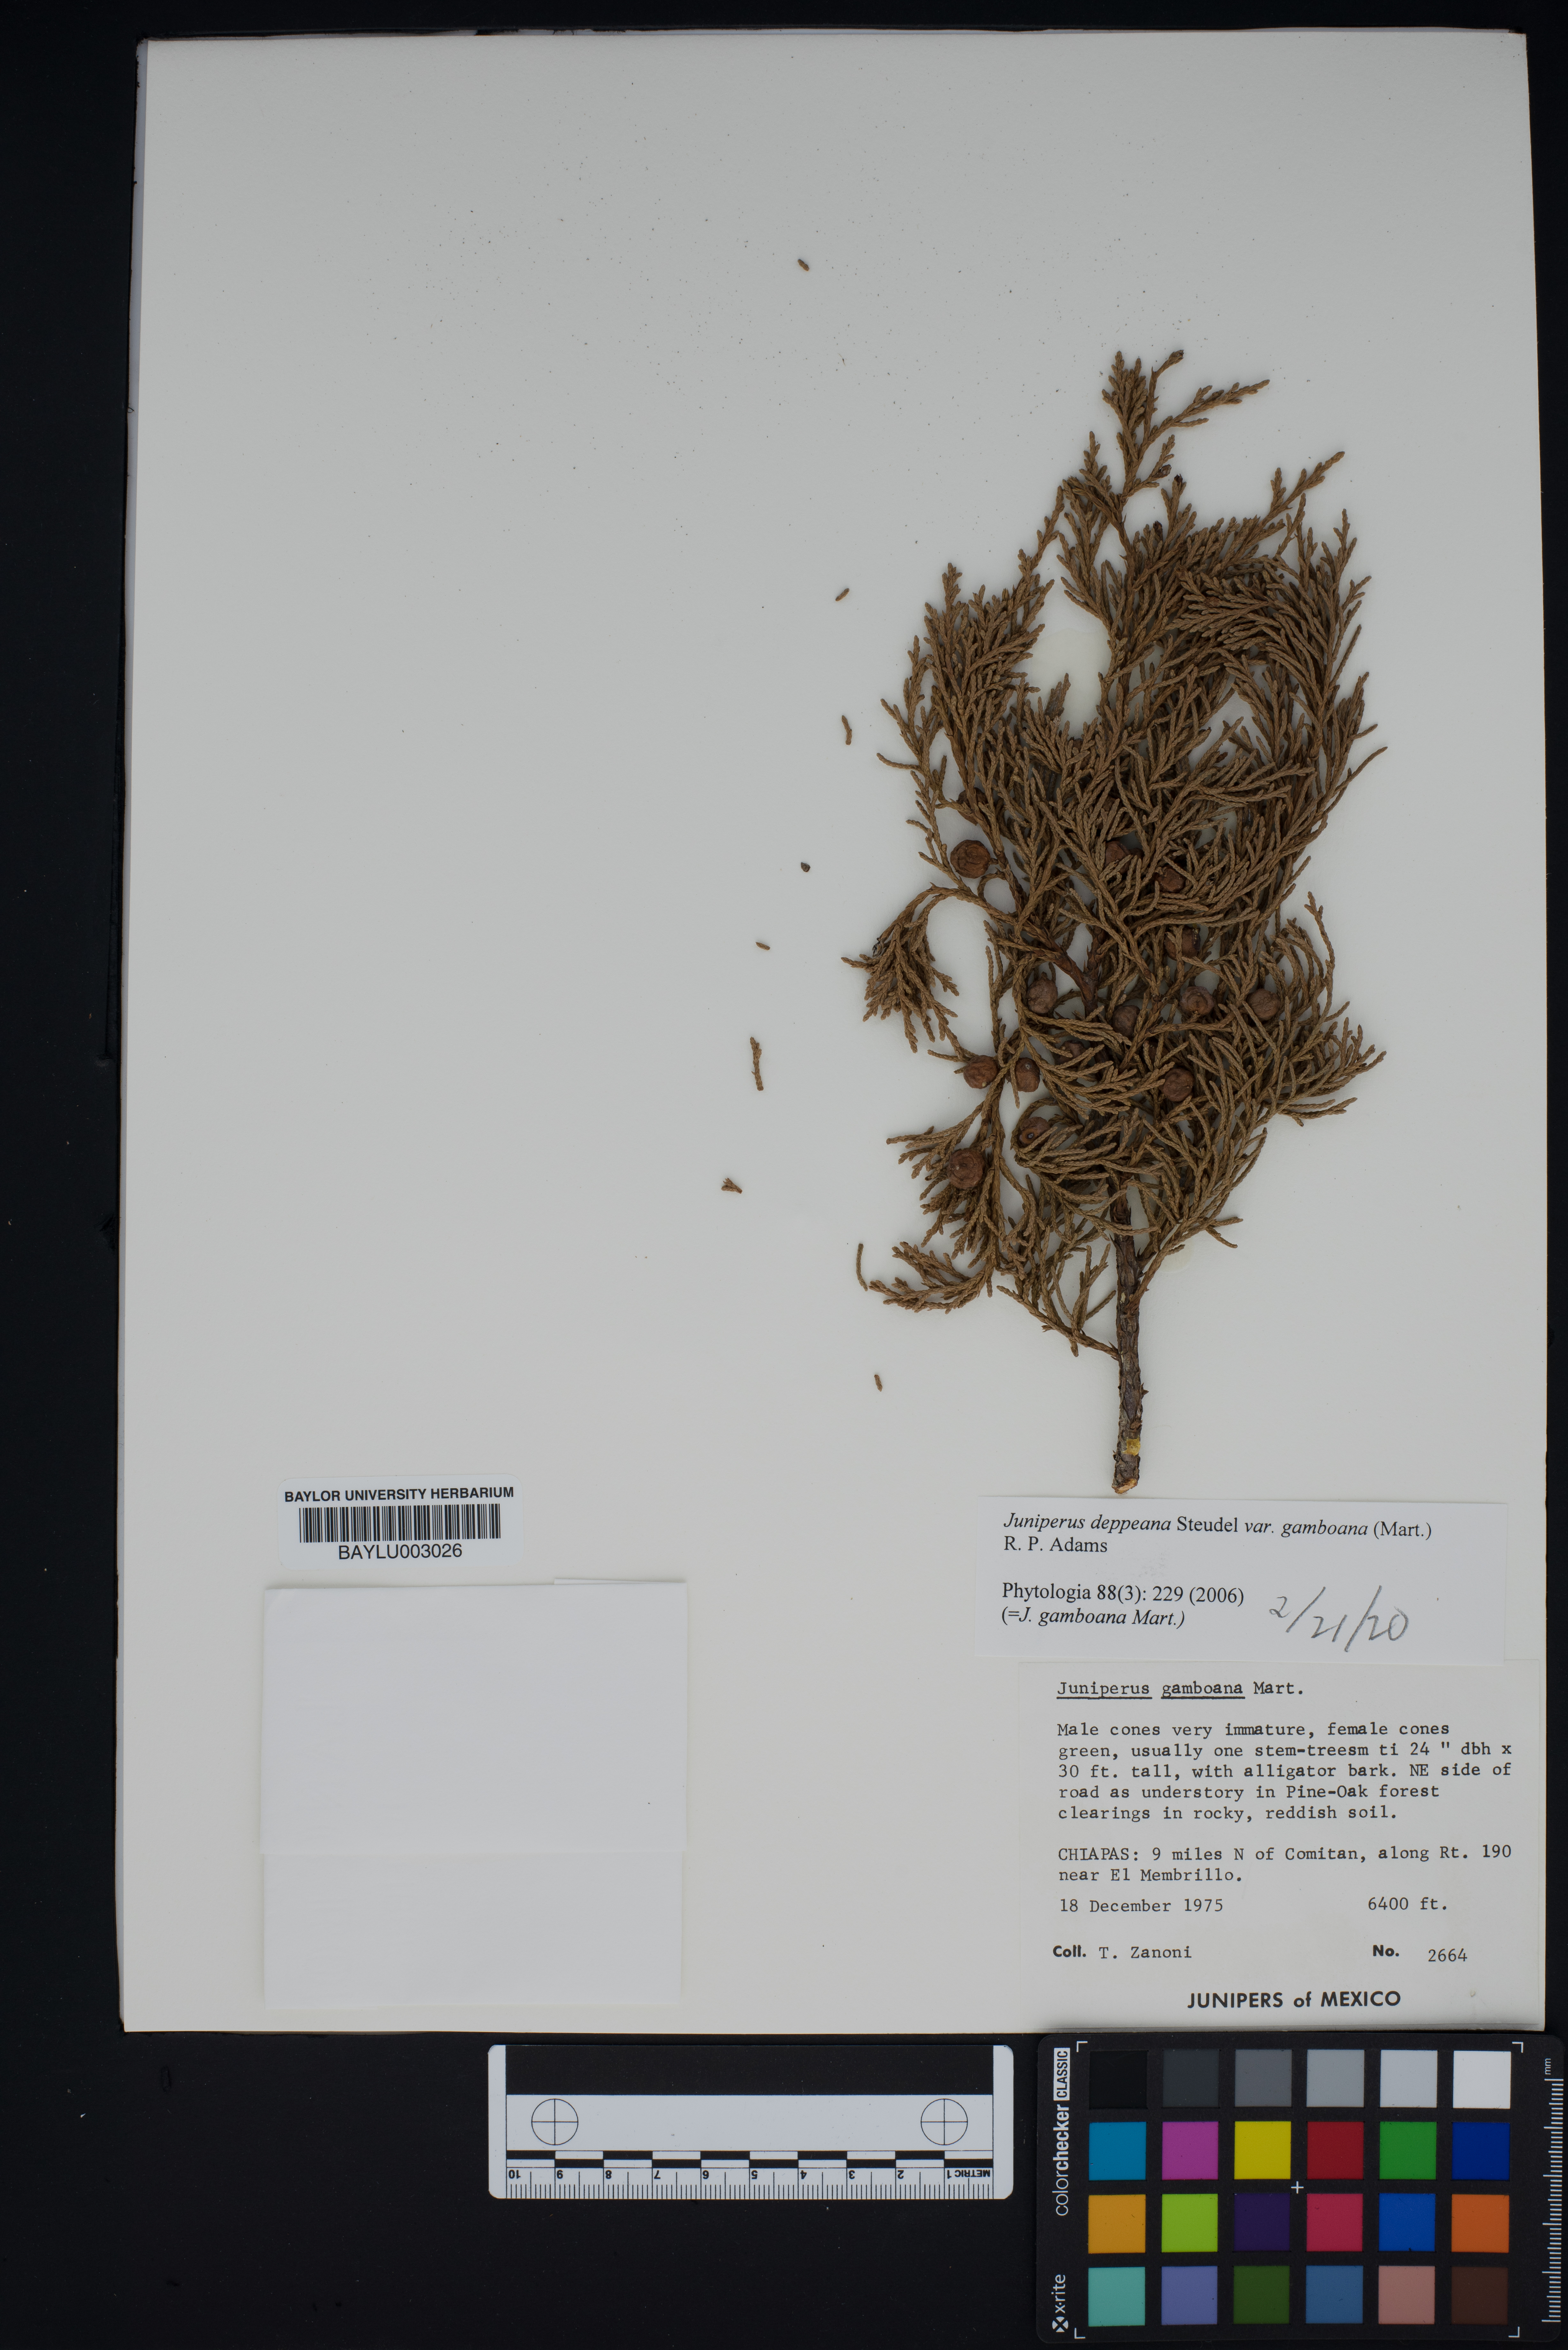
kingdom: Plantae
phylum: Tracheophyta
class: Pinopsida
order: Pinales
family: Cupressaceae
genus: Juniperus
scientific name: Juniperus gamboana
